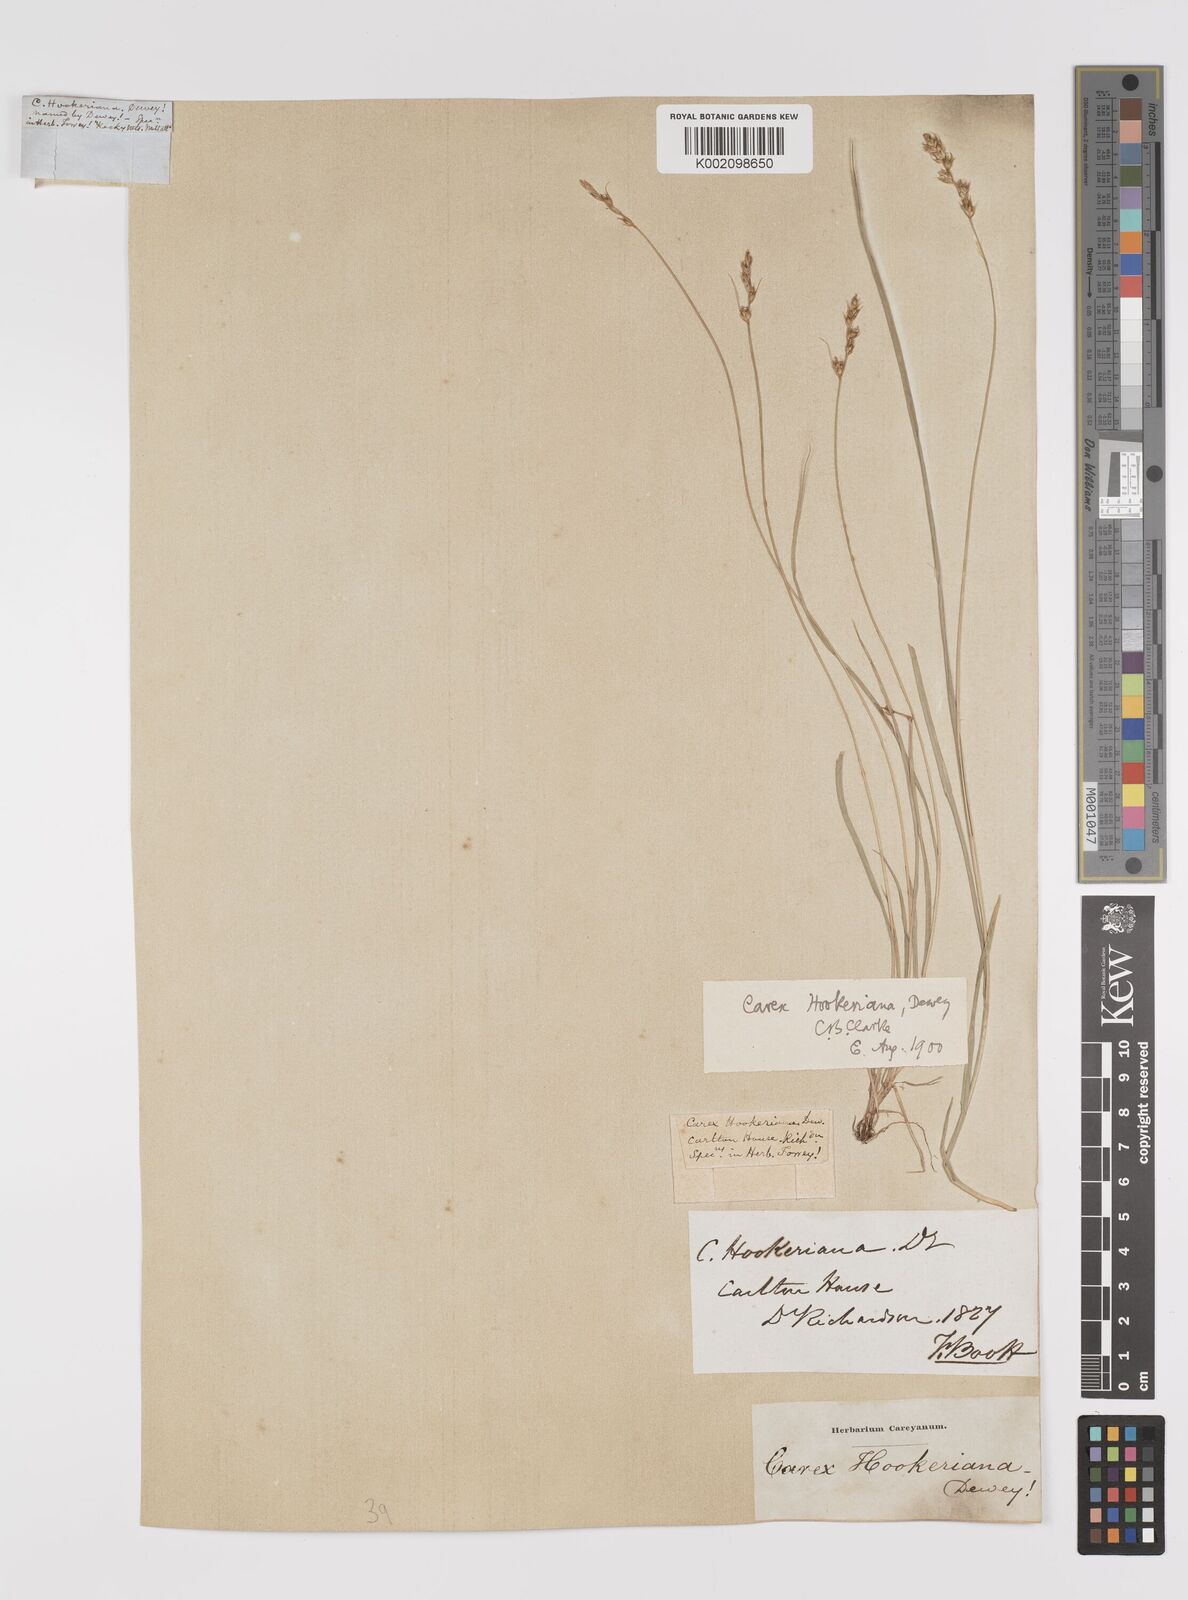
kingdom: Plantae
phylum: Tracheophyta
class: Liliopsida
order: Poales
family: Cyperaceae
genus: Carex
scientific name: Carex hookeriana
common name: Hooker's sedge
